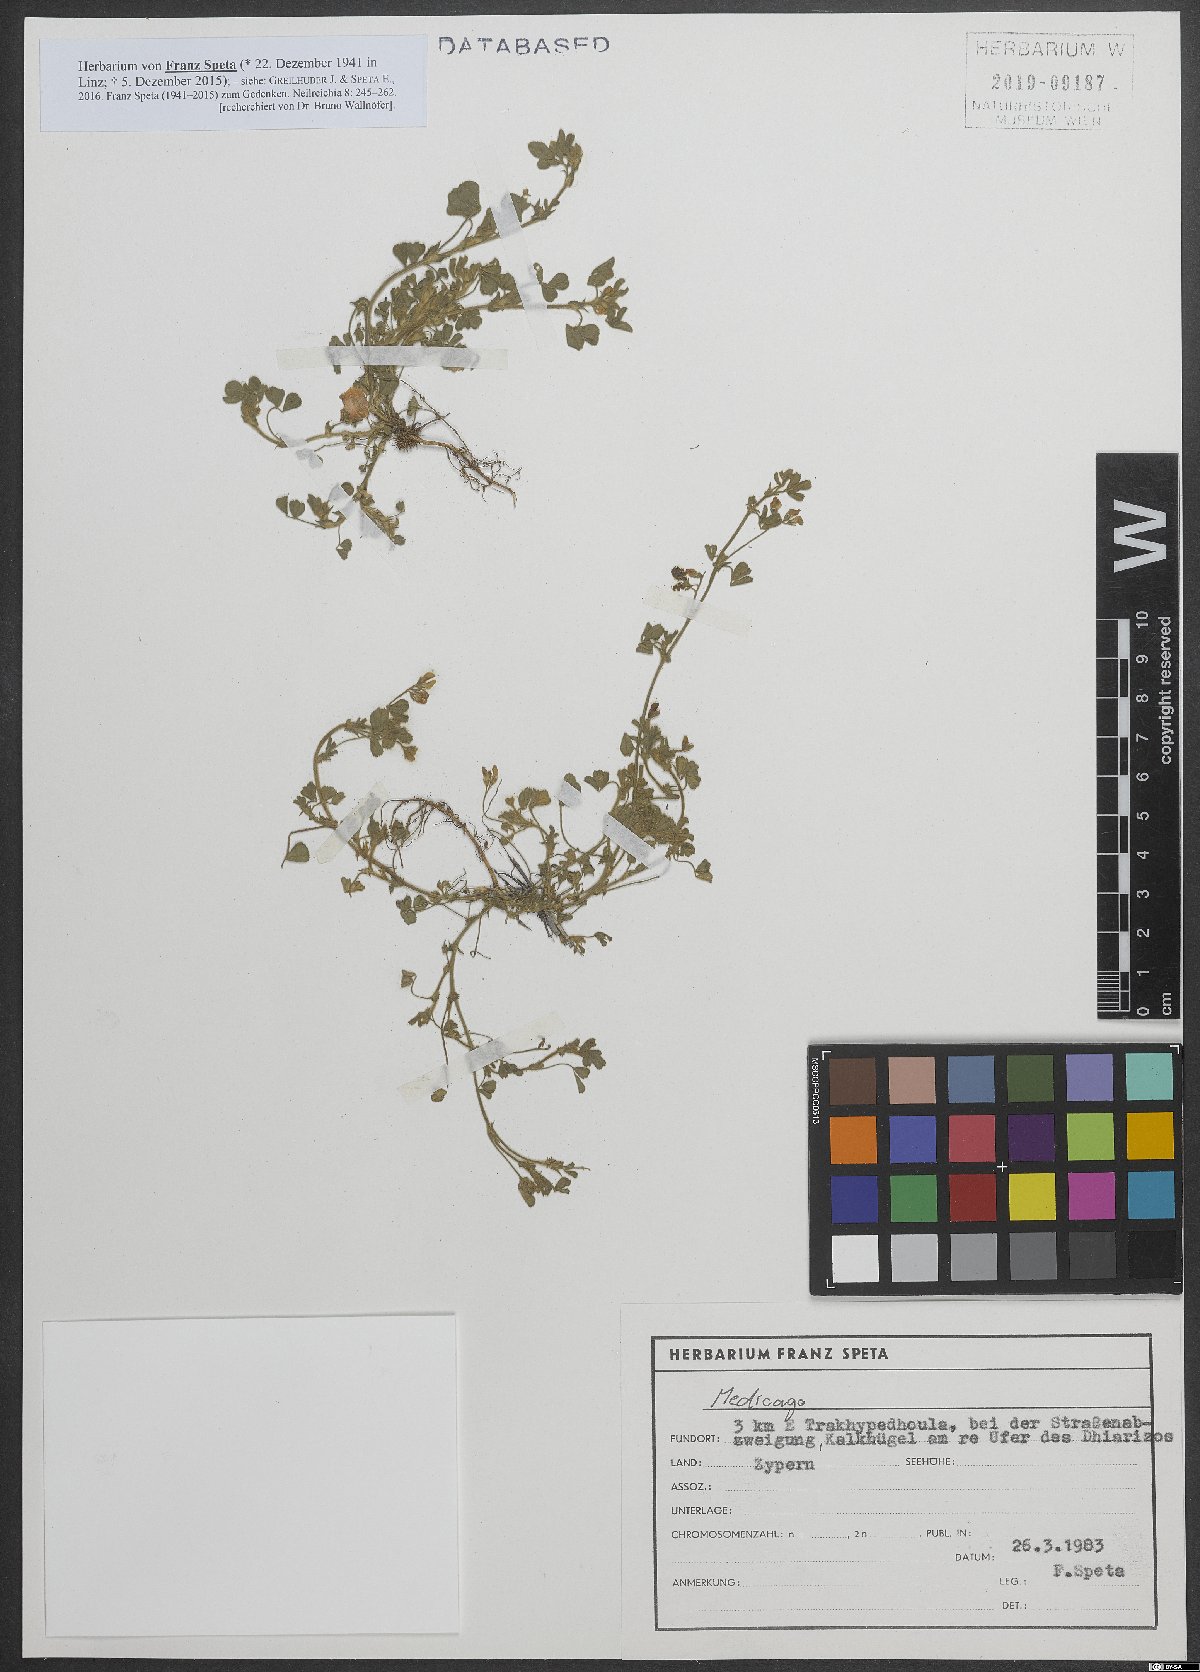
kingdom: Plantae
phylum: Tracheophyta
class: Magnoliopsida
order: Fabales
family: Fabaceae
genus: Medicago
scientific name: Medicago
